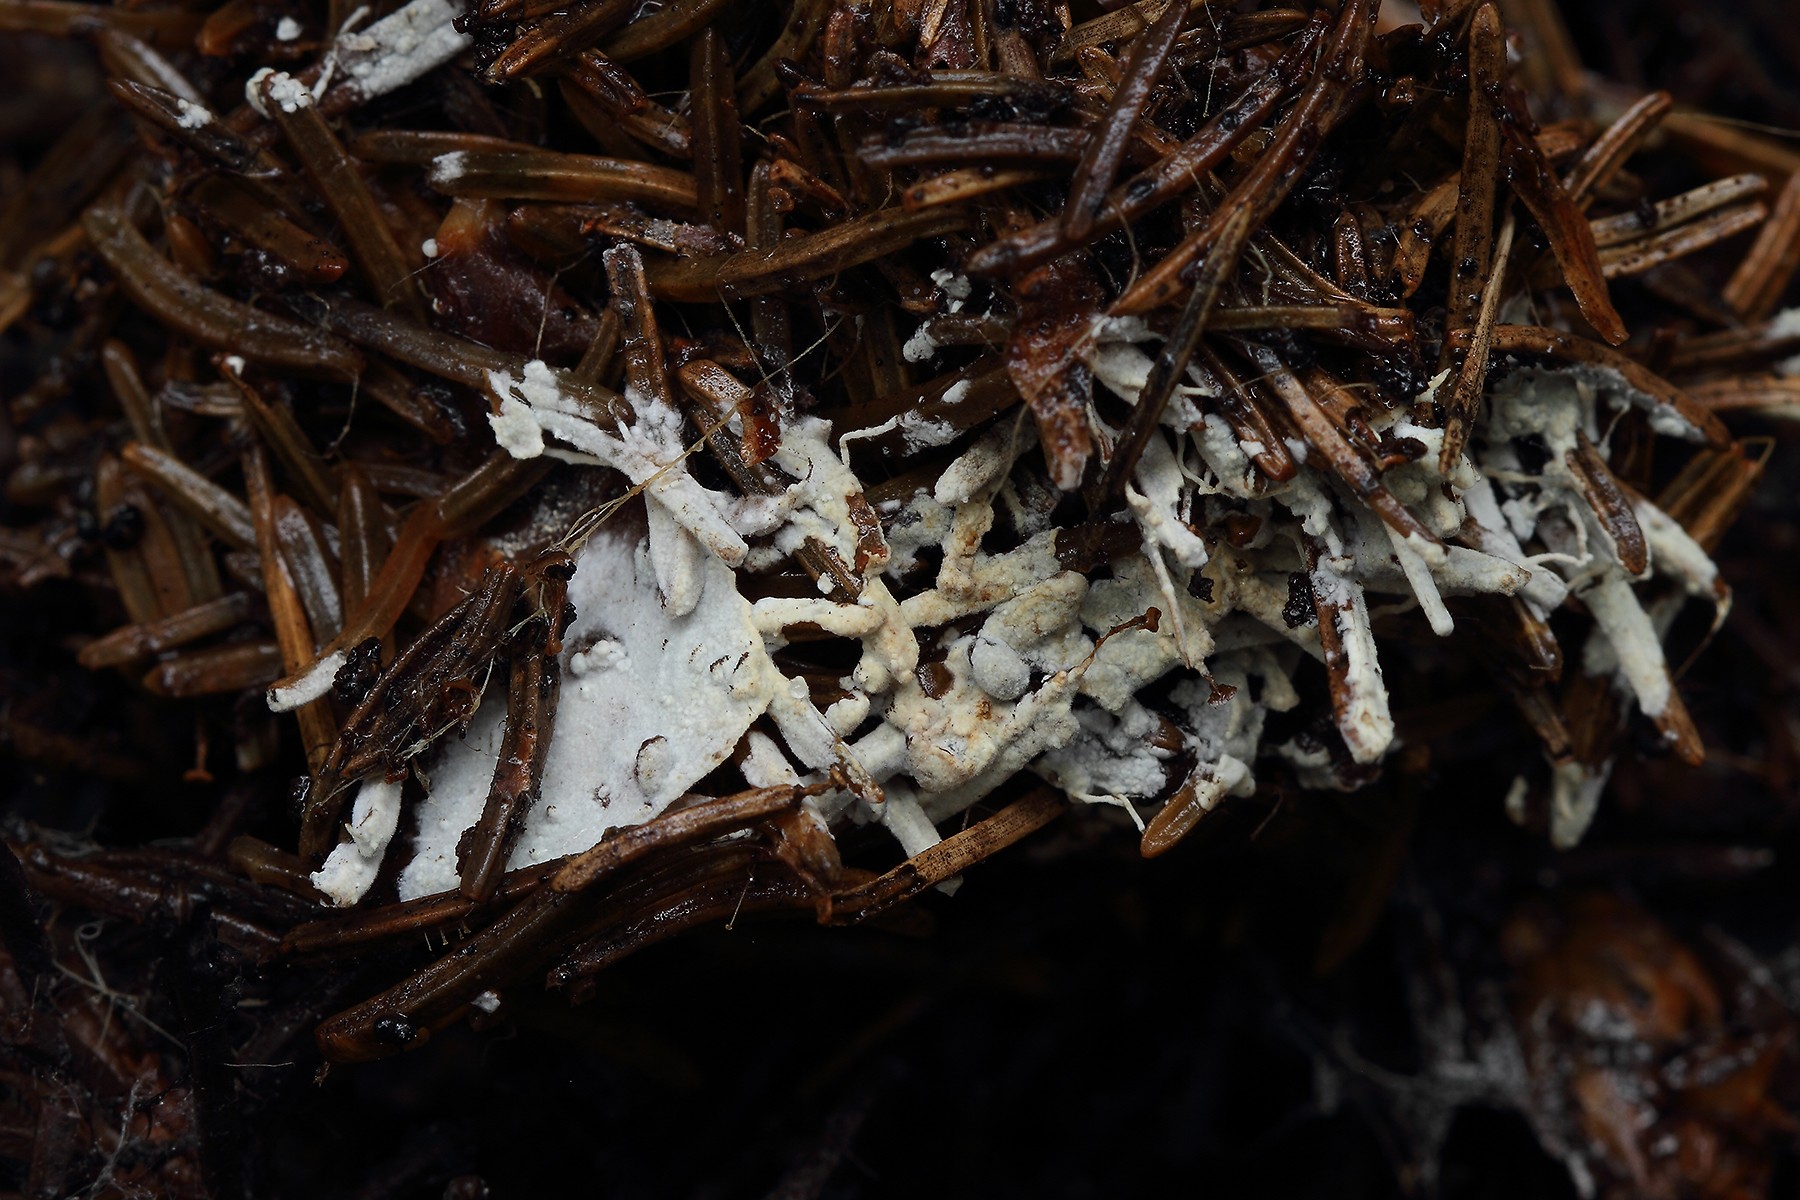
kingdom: Fungi
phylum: Basidiomycota
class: Agaricomycetes
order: Hymenochaetales
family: Hyphodontiaceae
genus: Hyphodontia
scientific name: Hyphodontia alutaria
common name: flaskerenser-nålehinde
